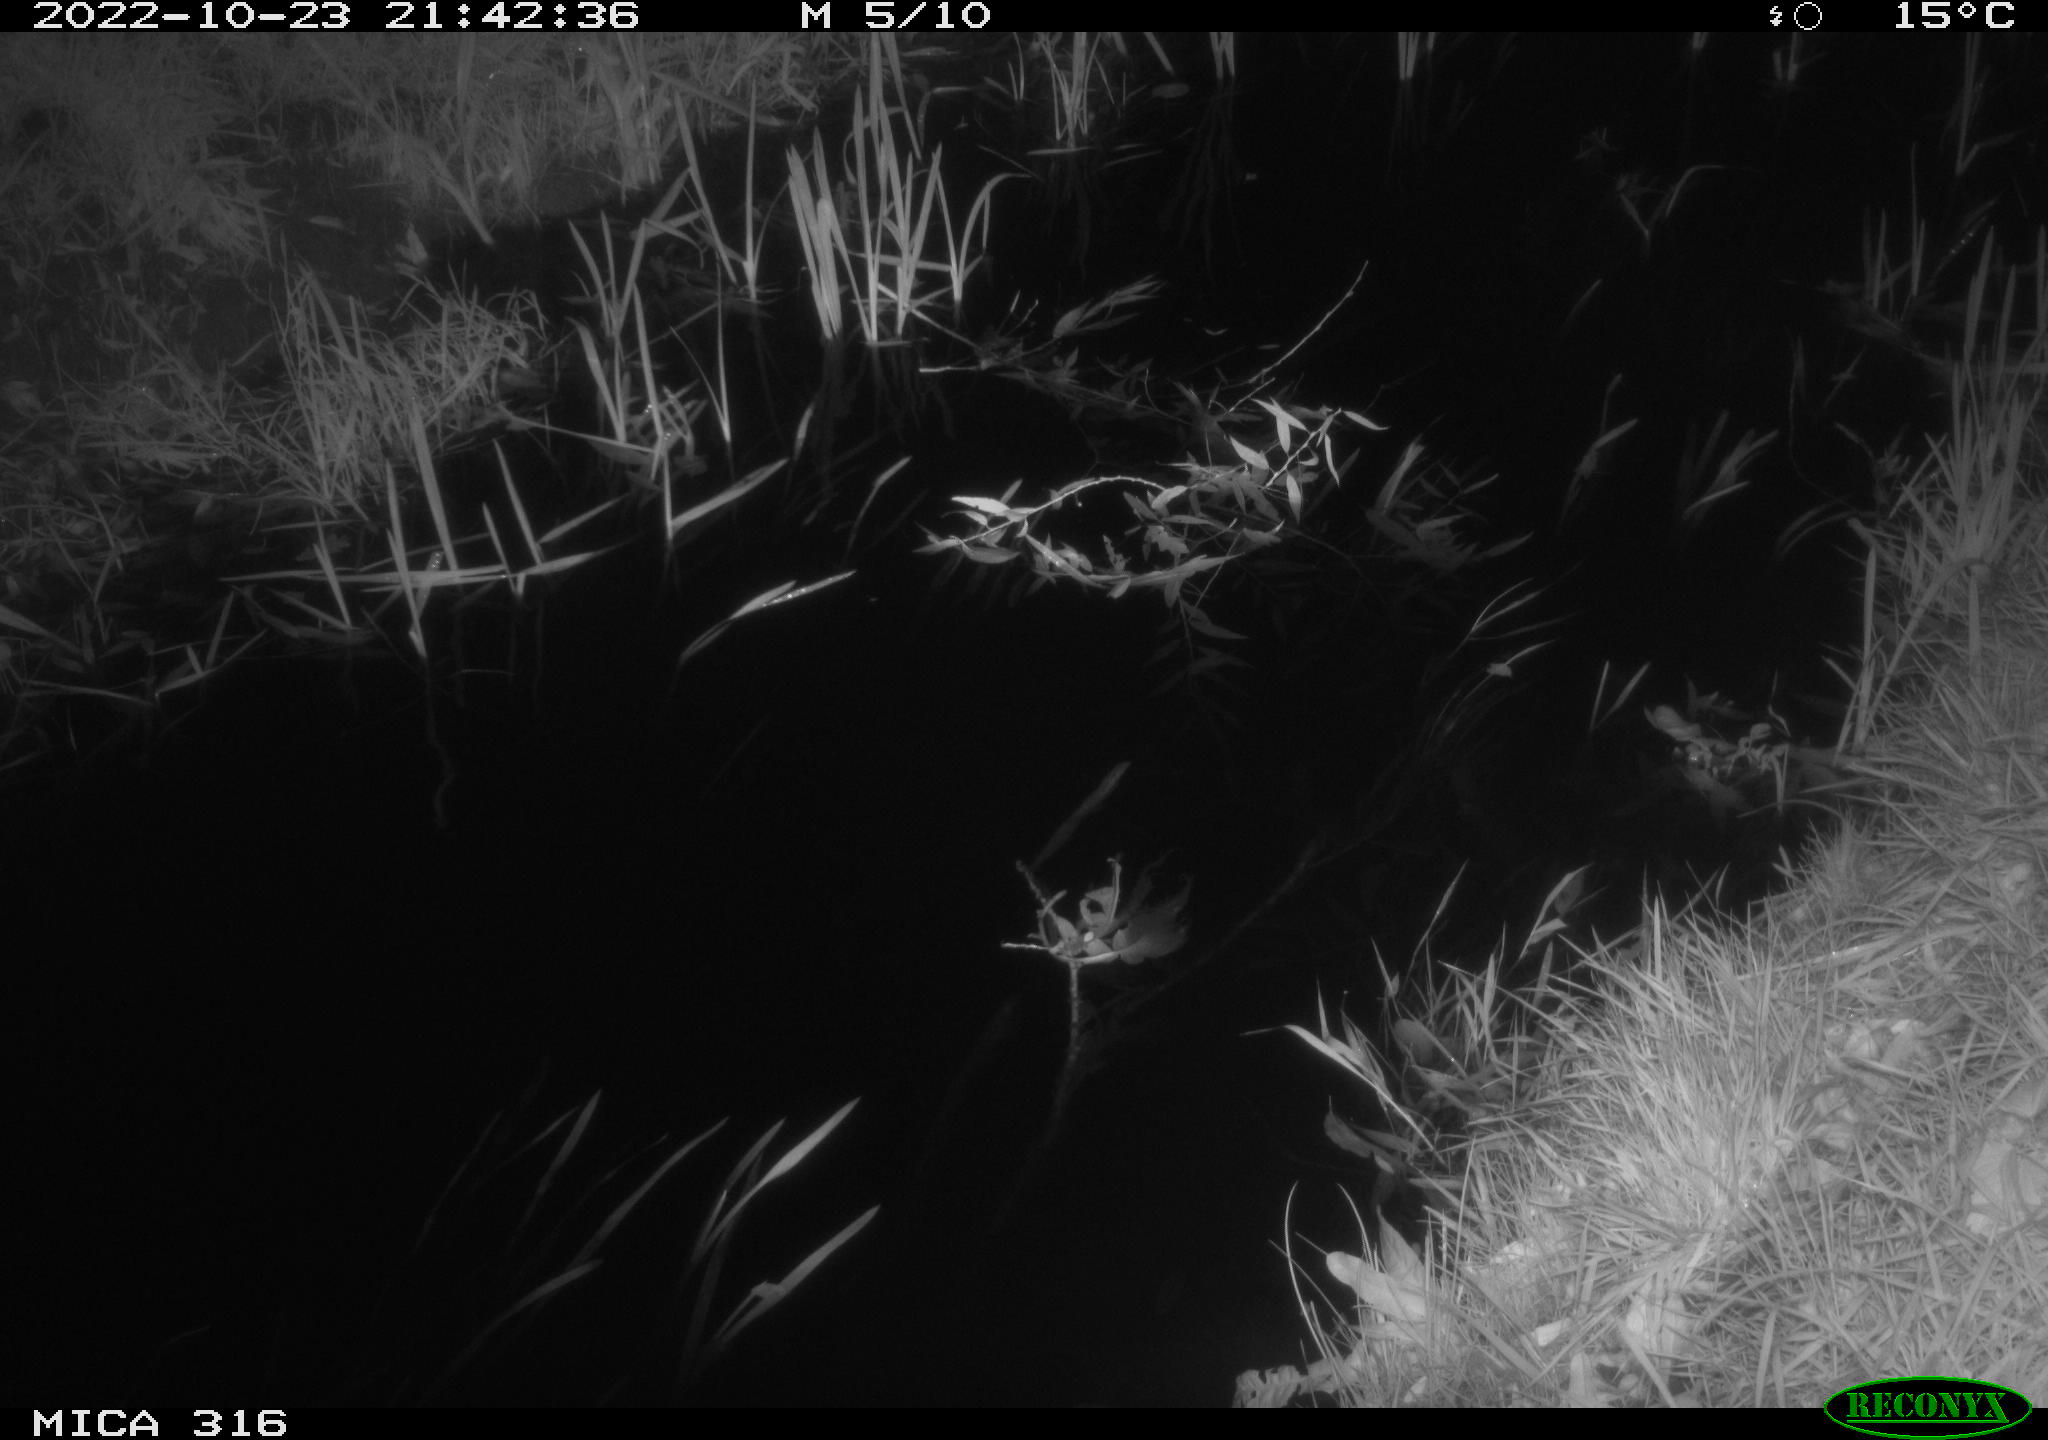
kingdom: Animalia
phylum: Chordata
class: Mammalia
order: Rodentia
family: Muridae
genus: Rattus
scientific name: Rattus norvegicus
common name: Brown rat
